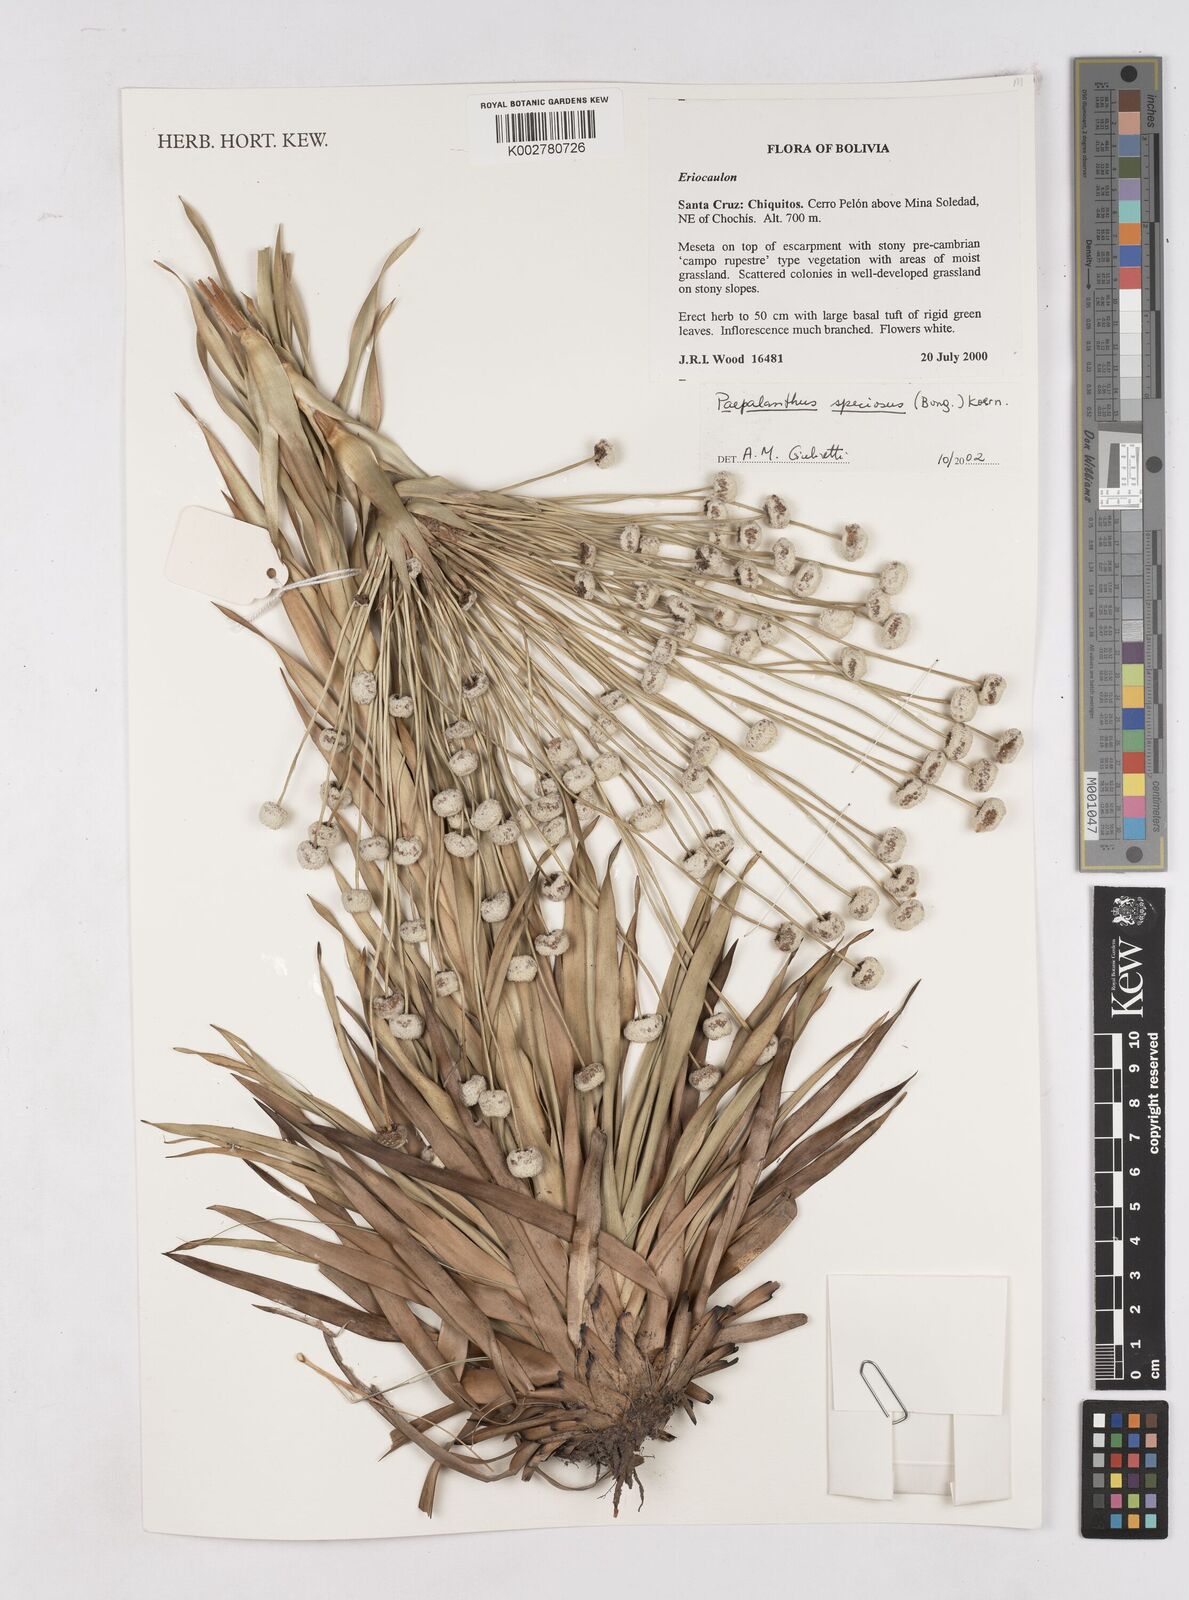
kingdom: Plantae
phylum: Tracheophyta
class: Liliopsida
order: Poales
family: Eriocaulaceae
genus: Paepalanthus
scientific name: Paepalanthus chiquitensis
